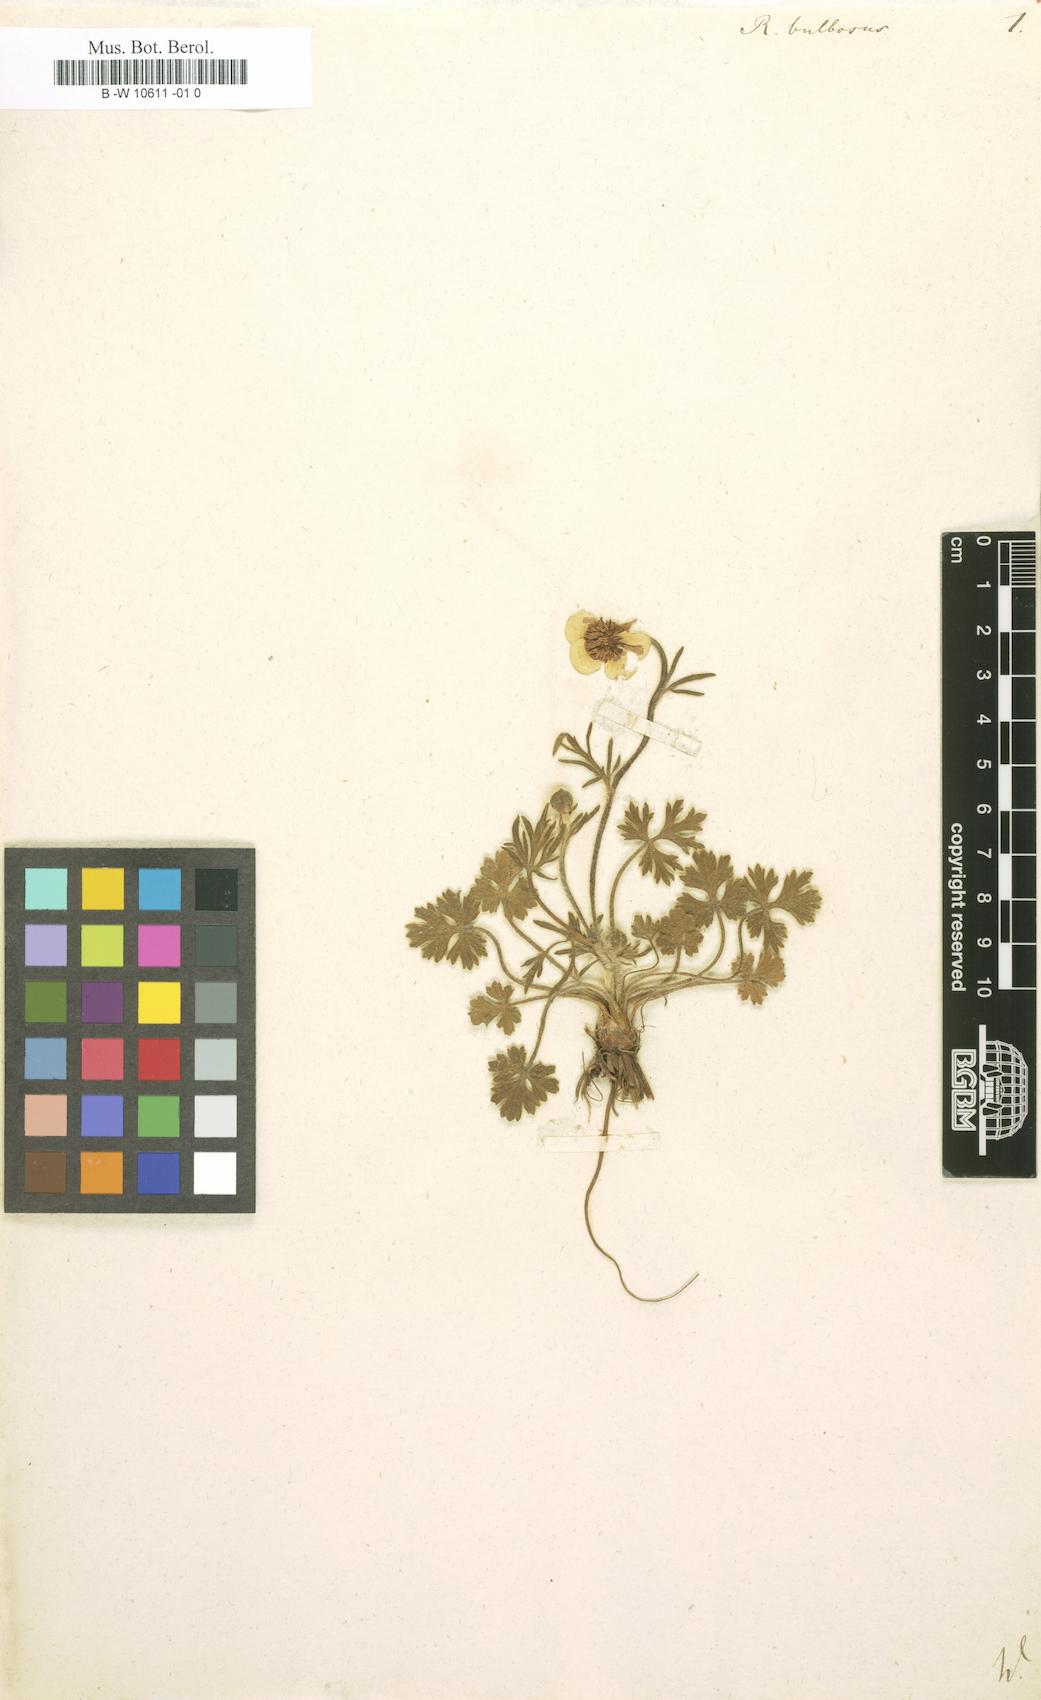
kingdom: Plantae
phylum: Tracheophyta
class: Magnoliopsida
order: Ranunculales
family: Ranunculaceae
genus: Ranunculus
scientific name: Ranunculus bulbosus
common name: Bulbous buttercup
